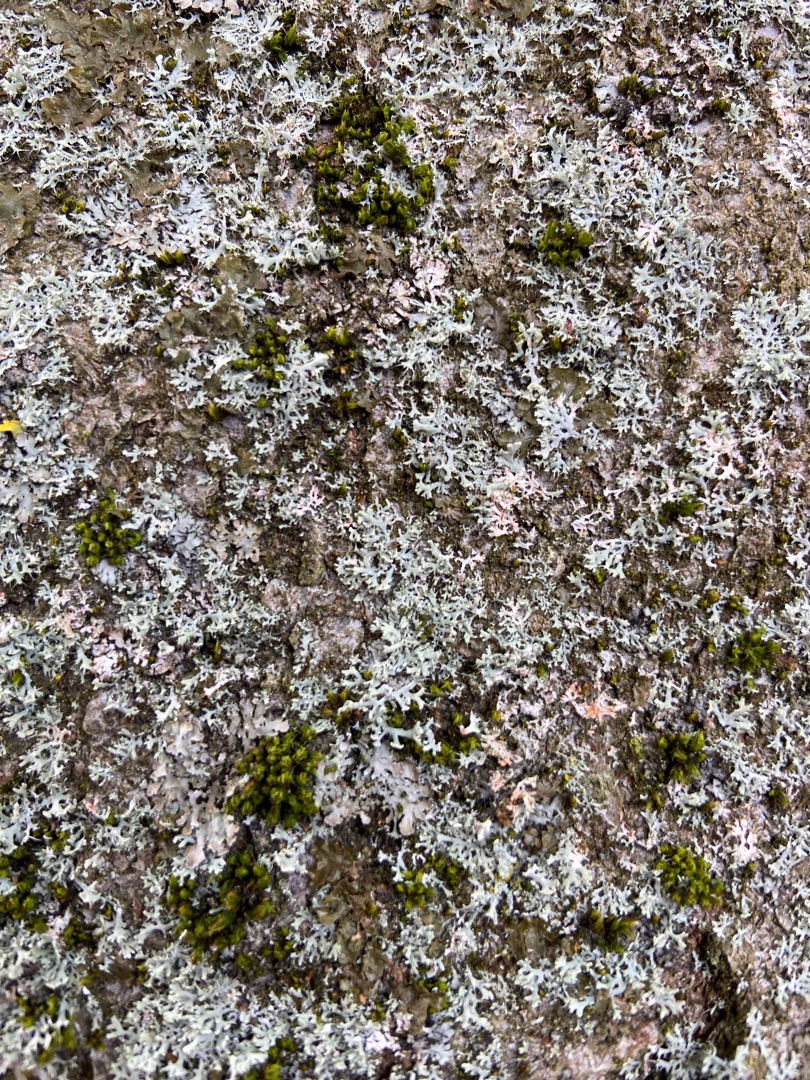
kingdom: Fungi
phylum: Ascomycota
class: Lecanoromycetes
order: Caliciales
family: Physciaceae
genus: Physcia
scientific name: Physcia tenella
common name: Spæd rosetlav
